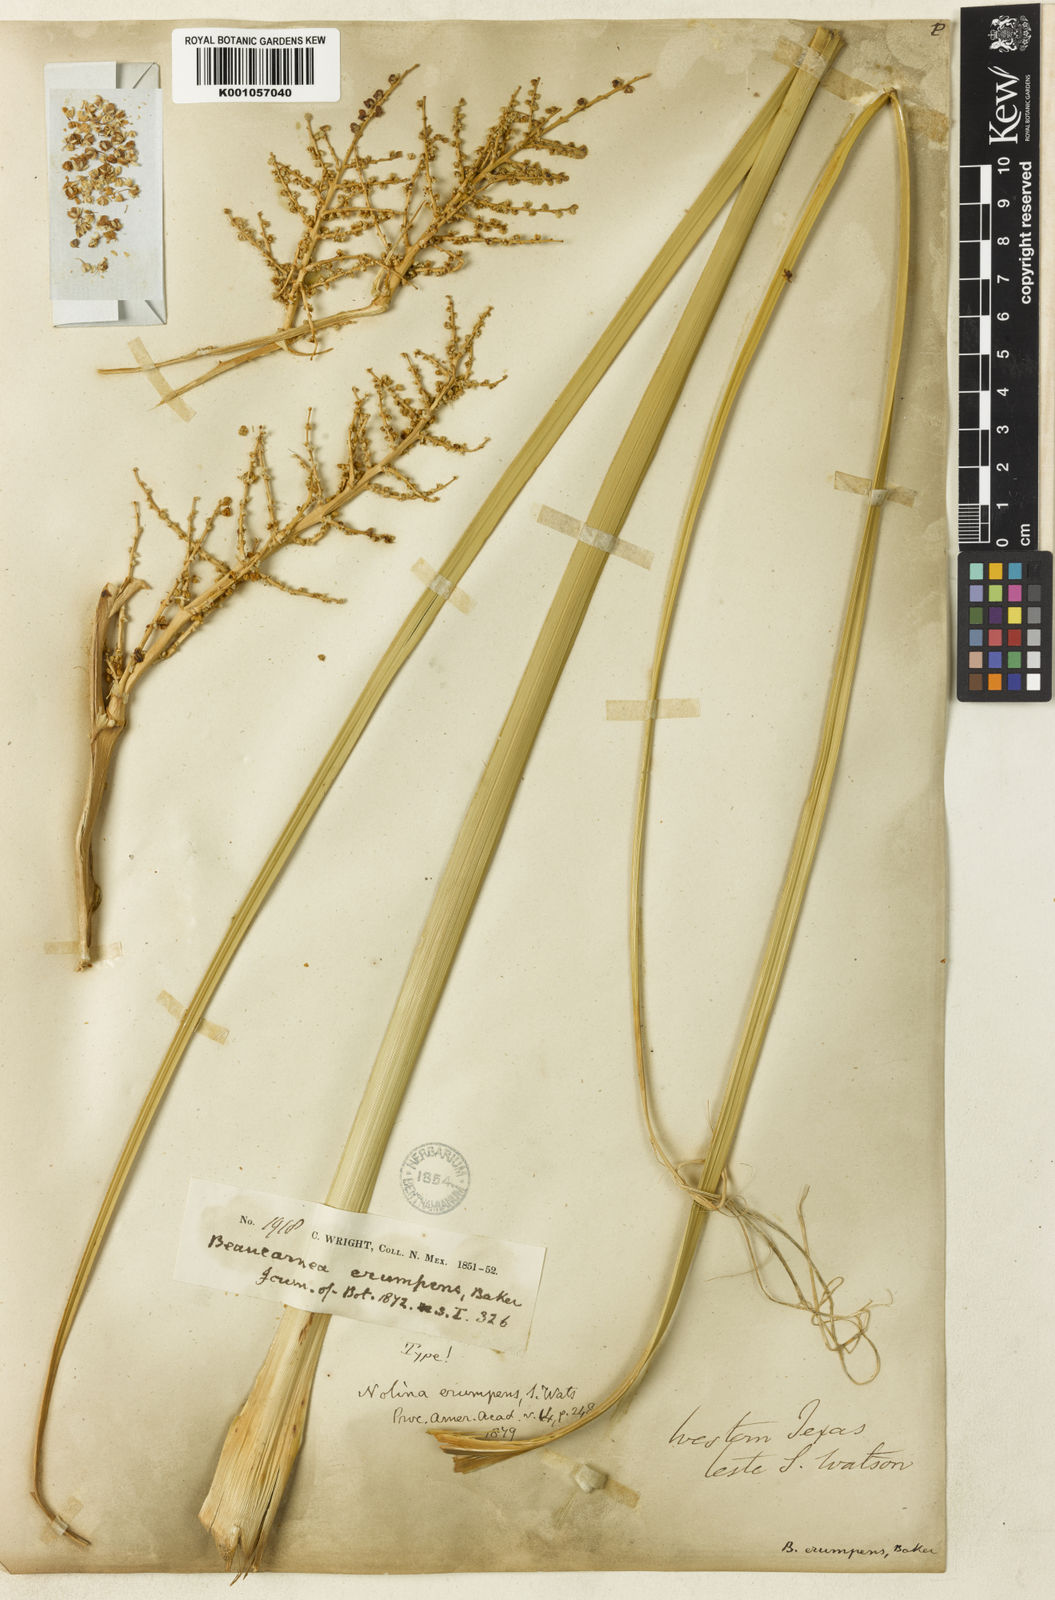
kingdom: Plantae
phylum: Tracheophyta
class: Liliopsida
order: Asparagales
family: Asparagaceae
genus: Nolina
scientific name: Nolina erumpens
